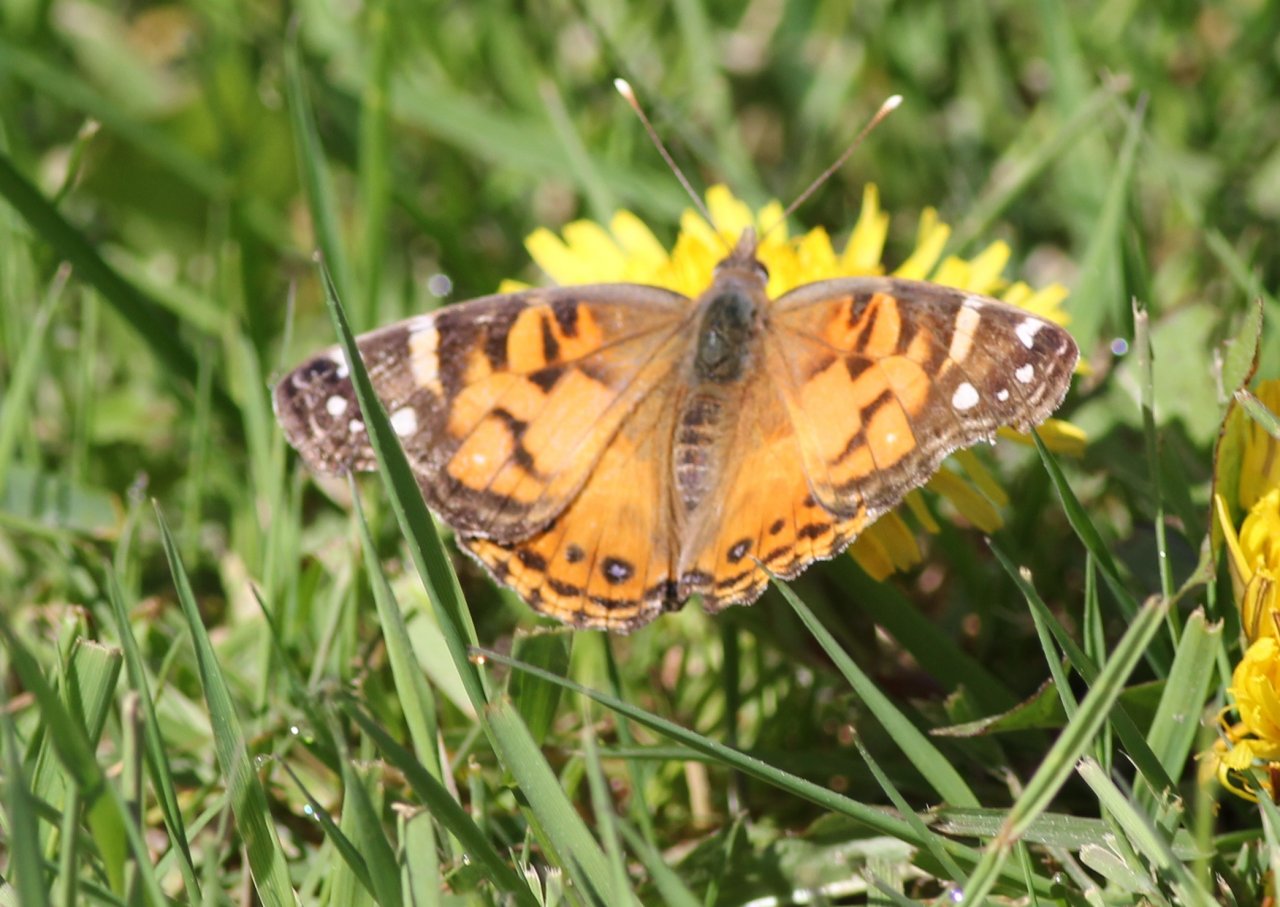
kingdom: Animalia
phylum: Arthropoda
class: Insecta
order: Lepidoptera
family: Nymphalidae
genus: Vanessa
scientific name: Vanessa virginiensis
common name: American Lady
